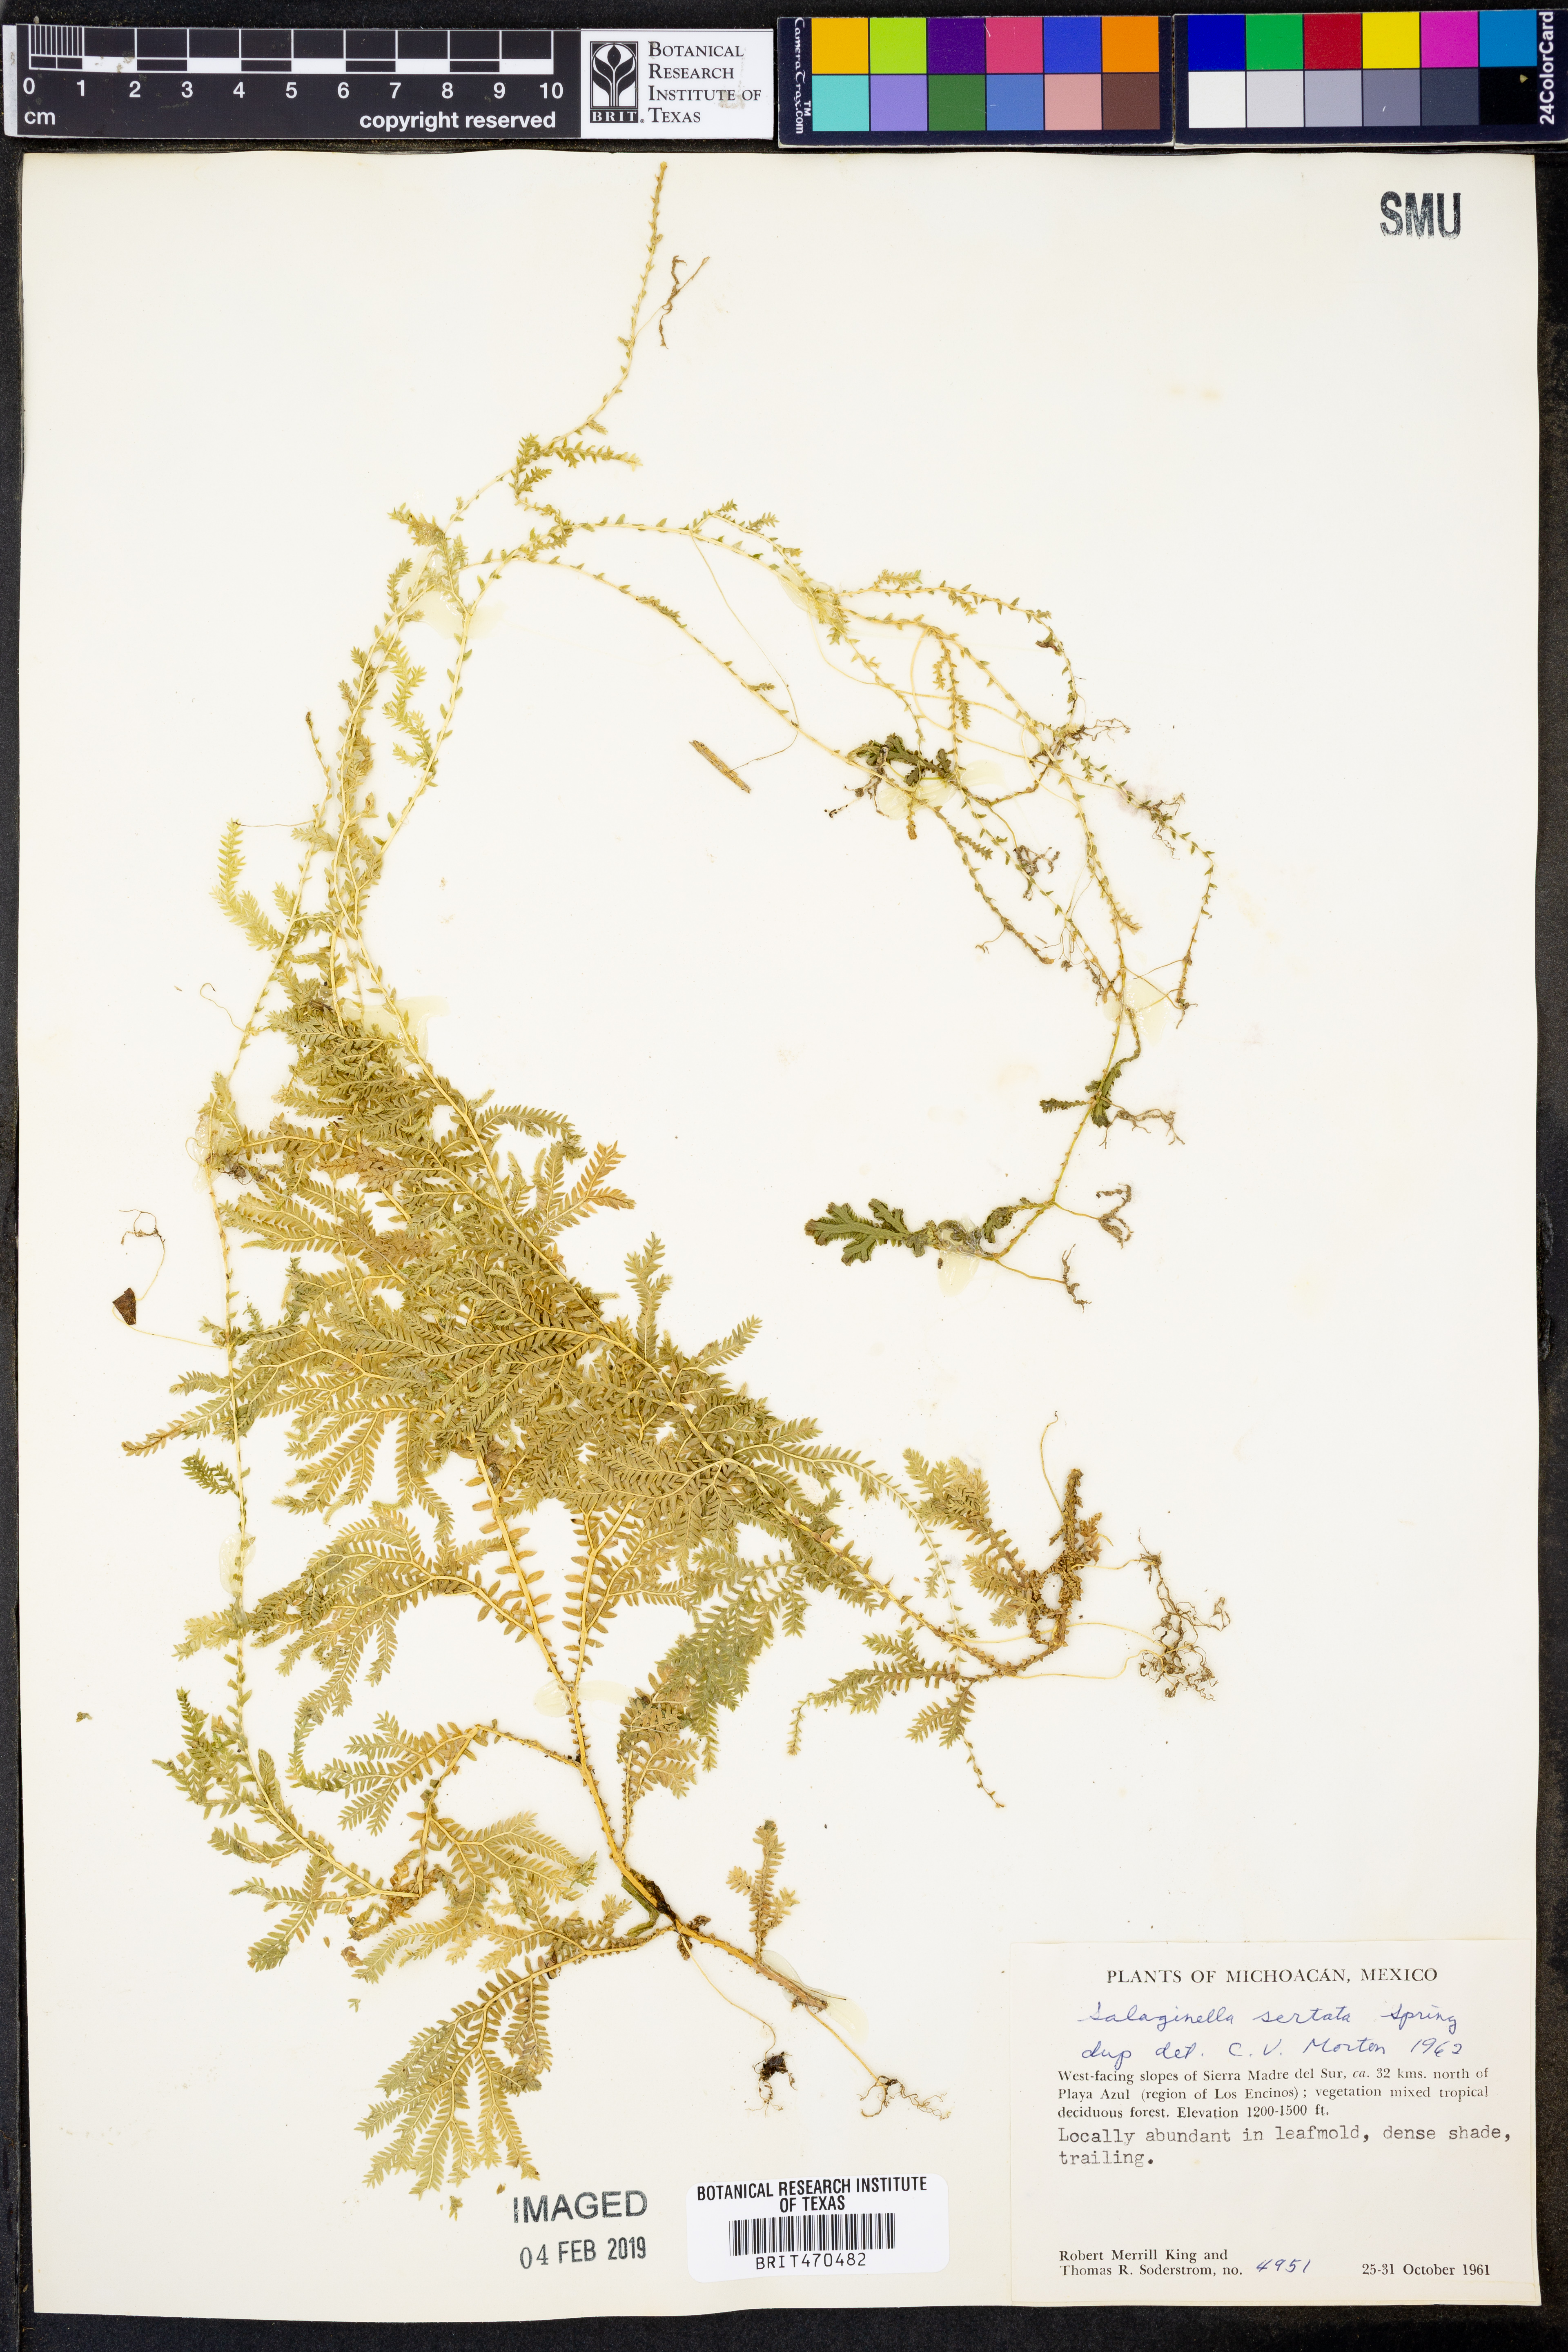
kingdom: Plantae
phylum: Tracheophyta
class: Lycopodiopsida
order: Selaginellales
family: Selaginellaceae
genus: Selaginella
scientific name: Selaginella sertata
